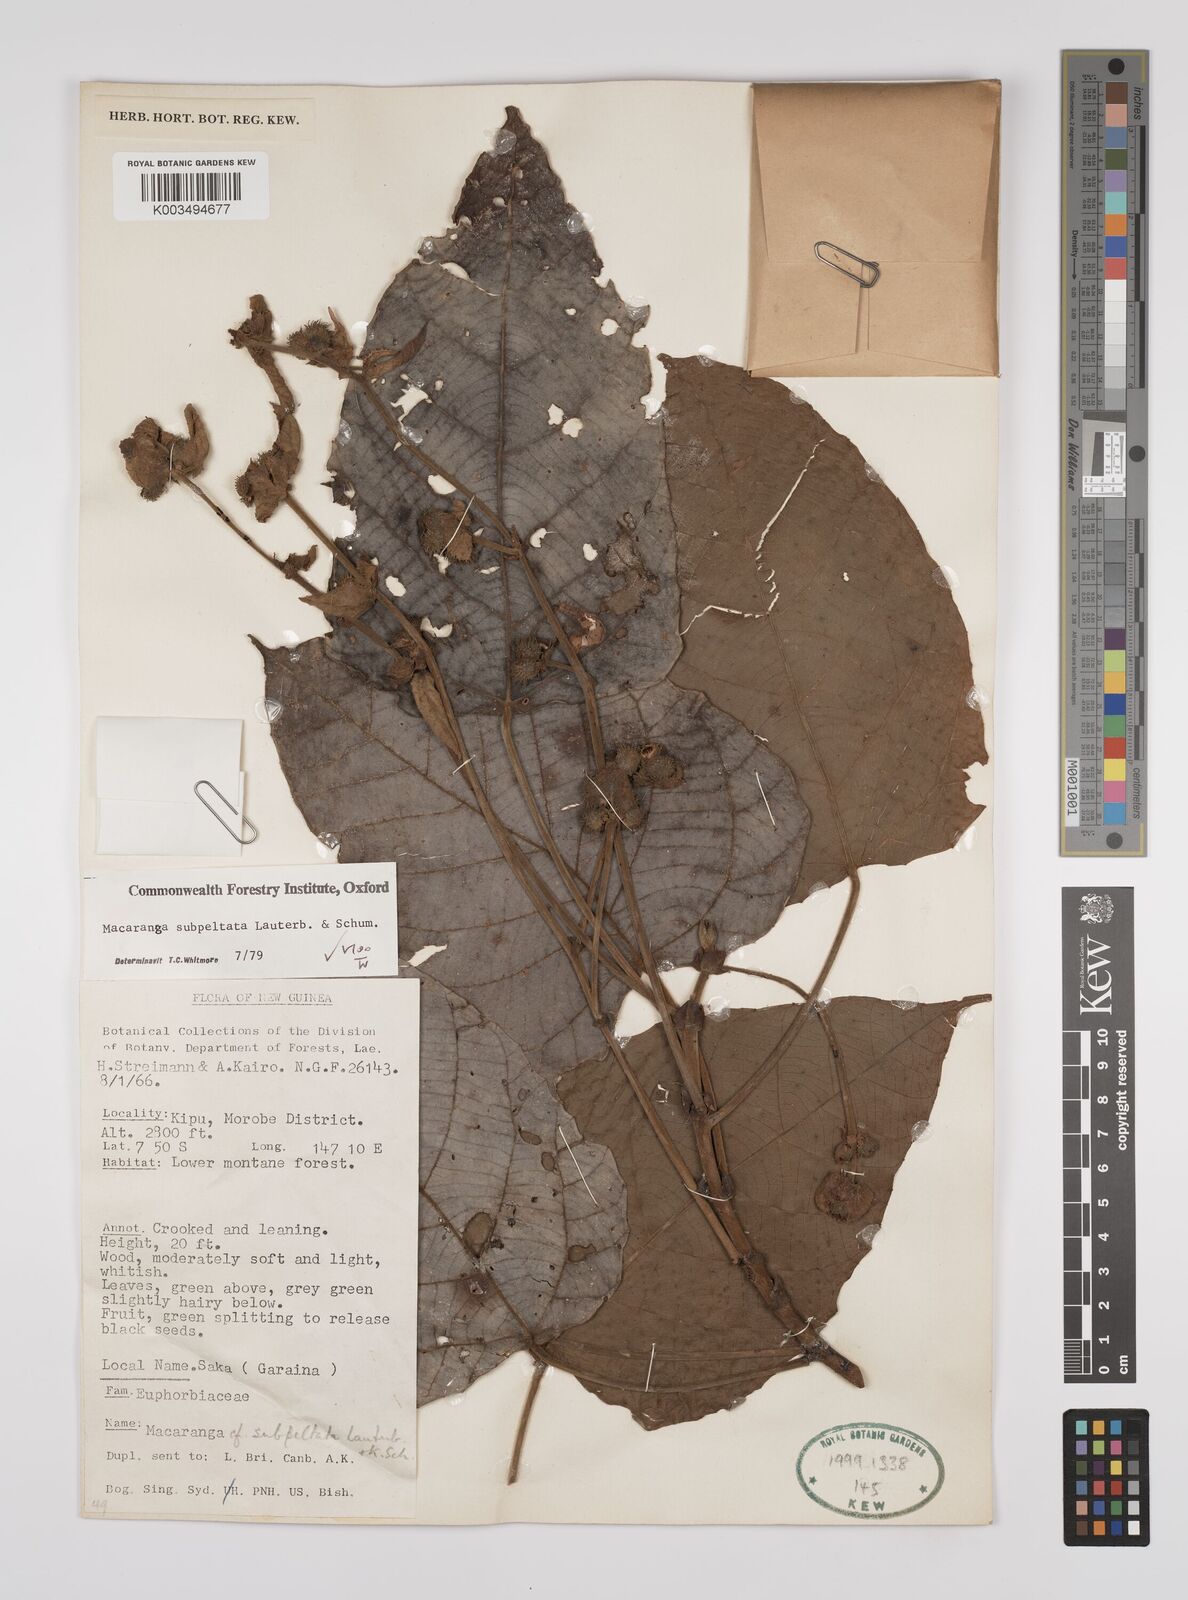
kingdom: Plantae
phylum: Tracheophyta
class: Magnoliopsida
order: Malpighiales
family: Euphorbiaceae
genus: Macaranga
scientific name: Macaranga subpeltata
